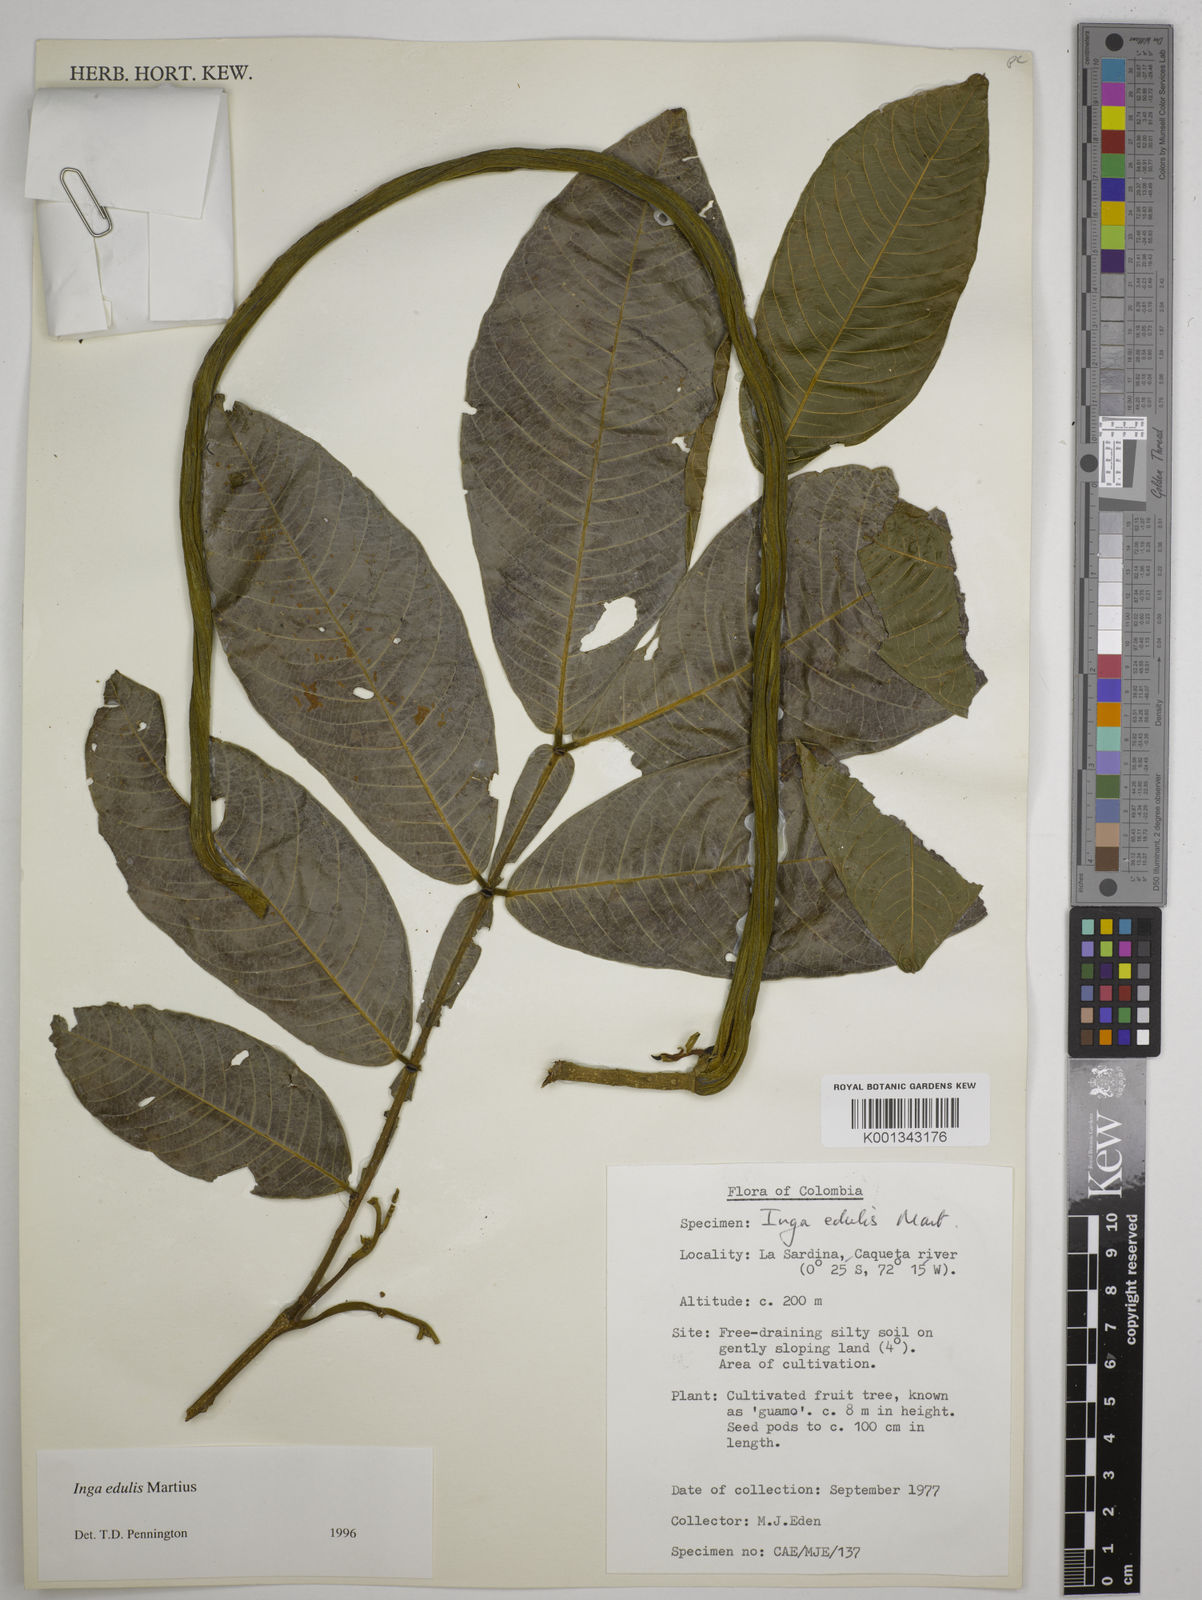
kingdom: Plantae
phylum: Tracheophyta
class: Magnoliopsida
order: Fabales
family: Fabaceae
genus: Inga
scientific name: Inga edulis
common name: Ice cream bean
